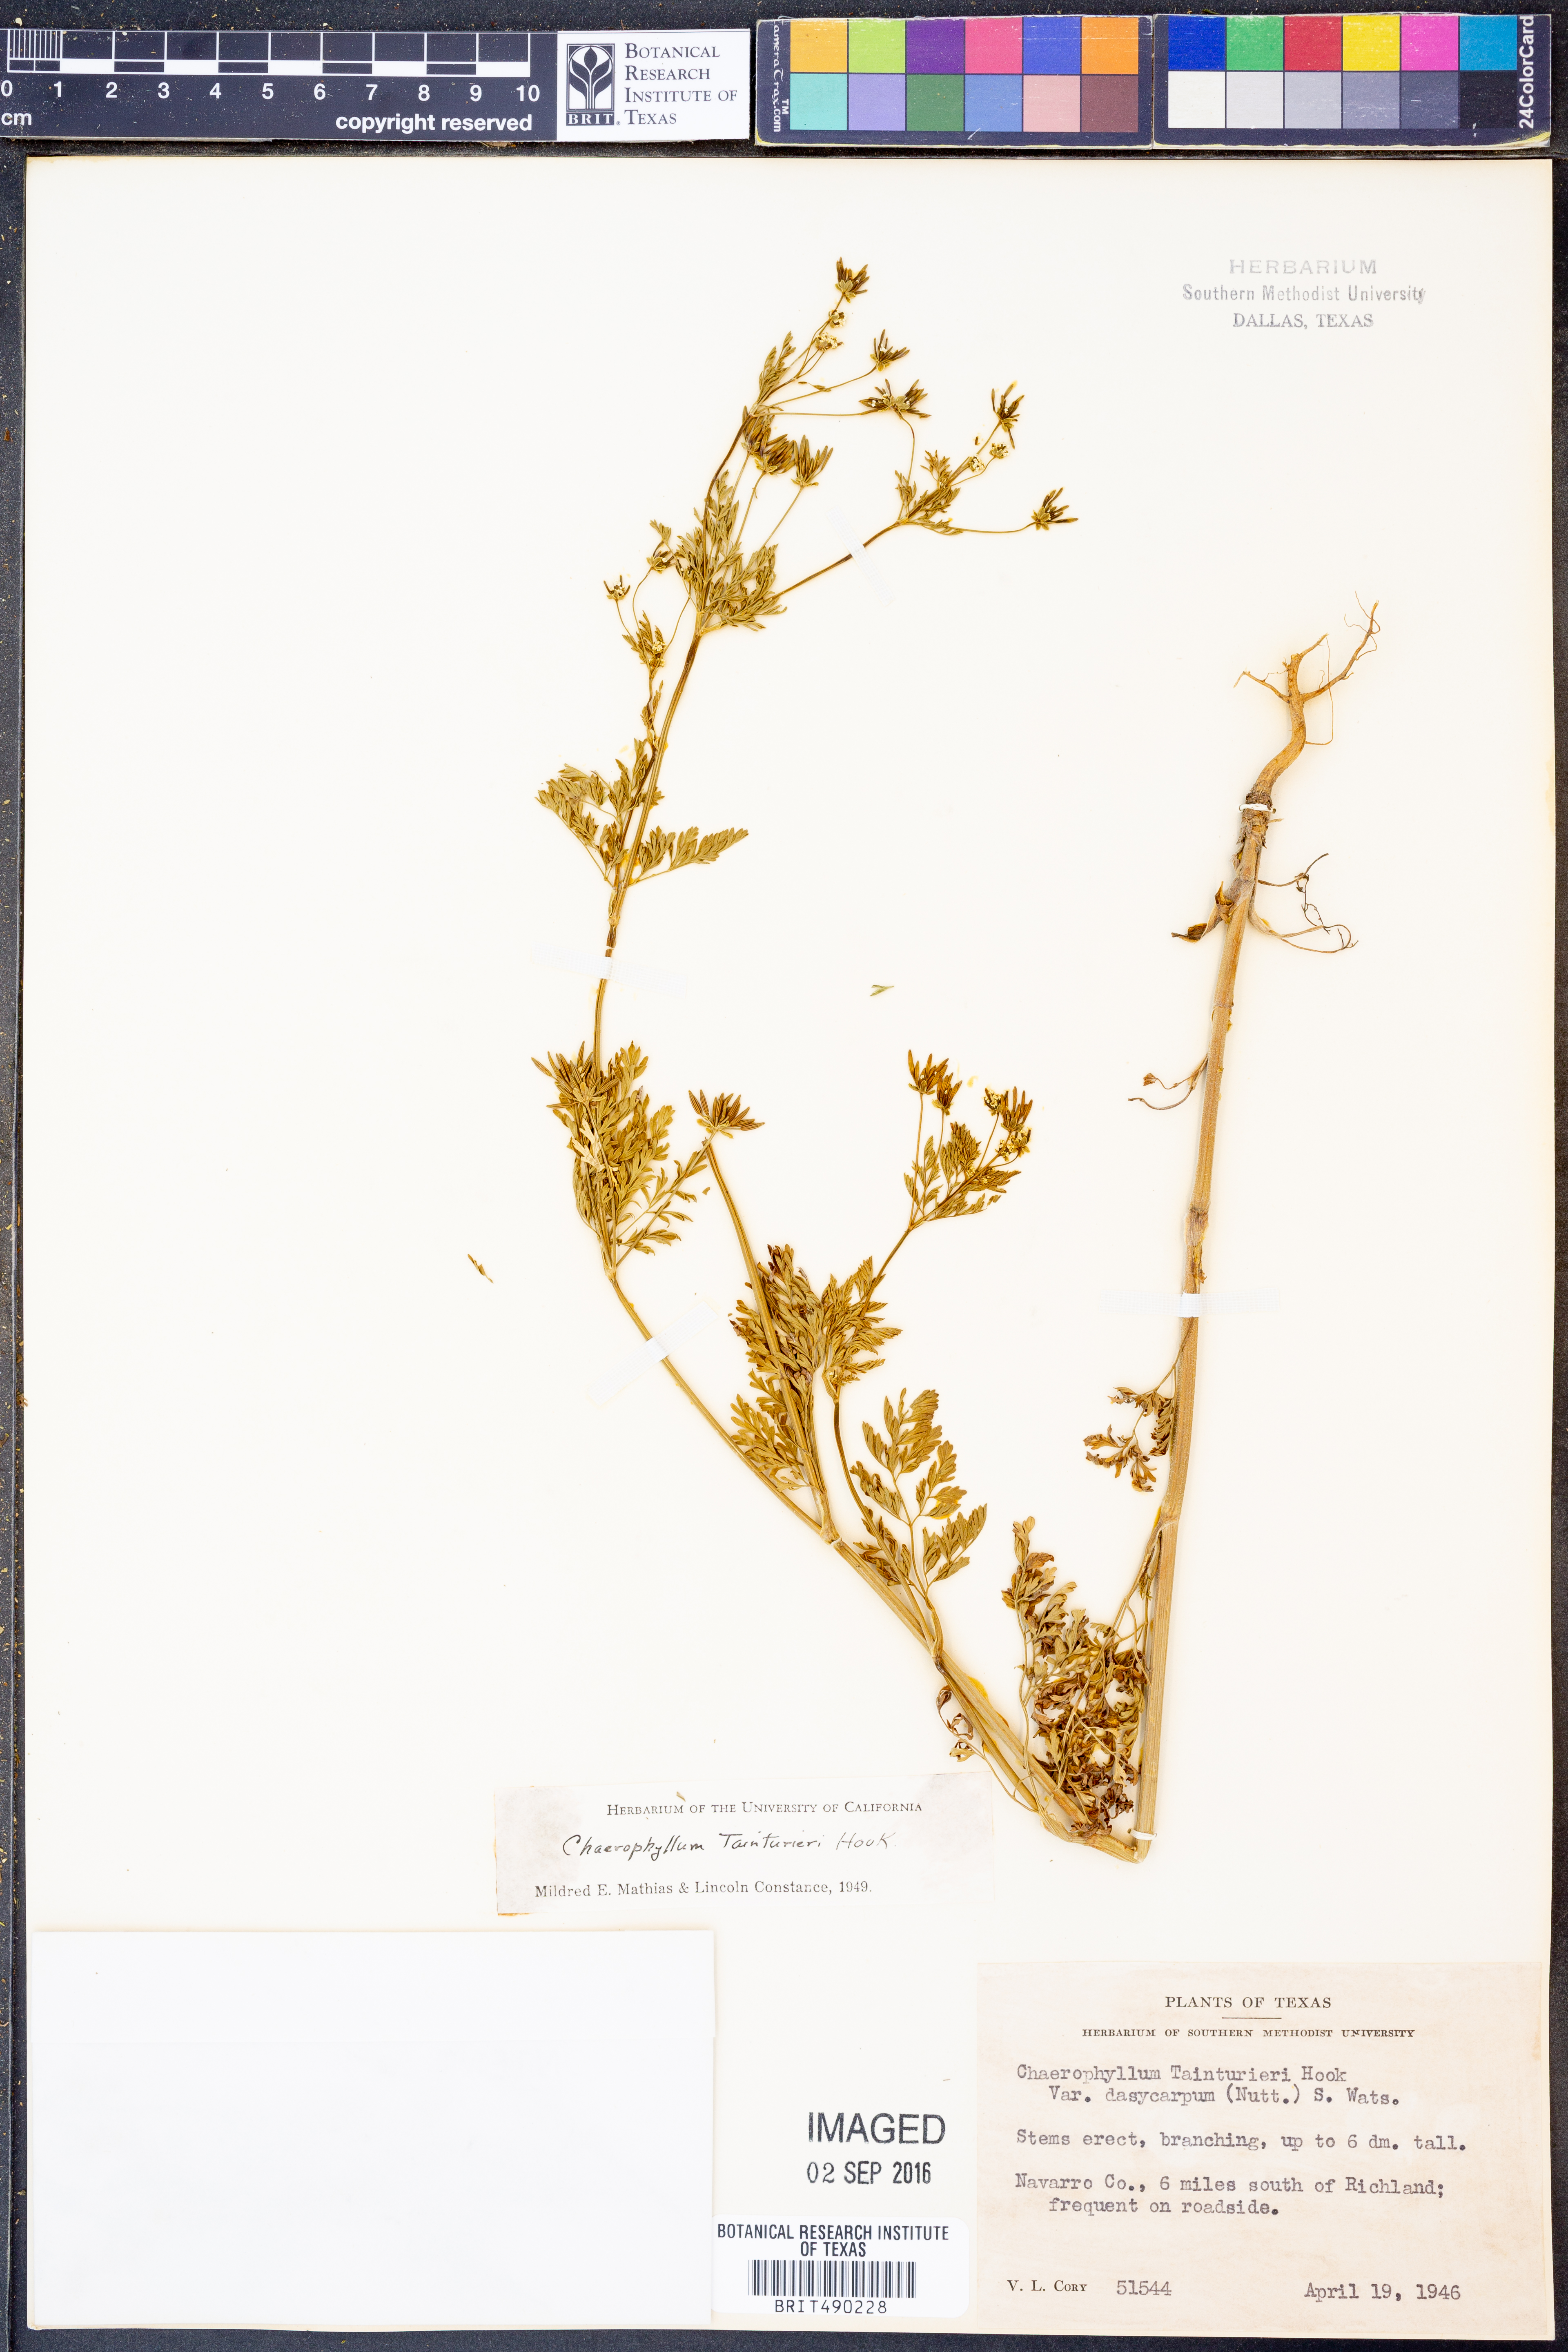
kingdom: Plantae
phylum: Tracheophyta
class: Magnoliopsida
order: Apiales
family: Apiaceae
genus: Chaerophyllum
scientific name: Chaerophyllum tainturieri
